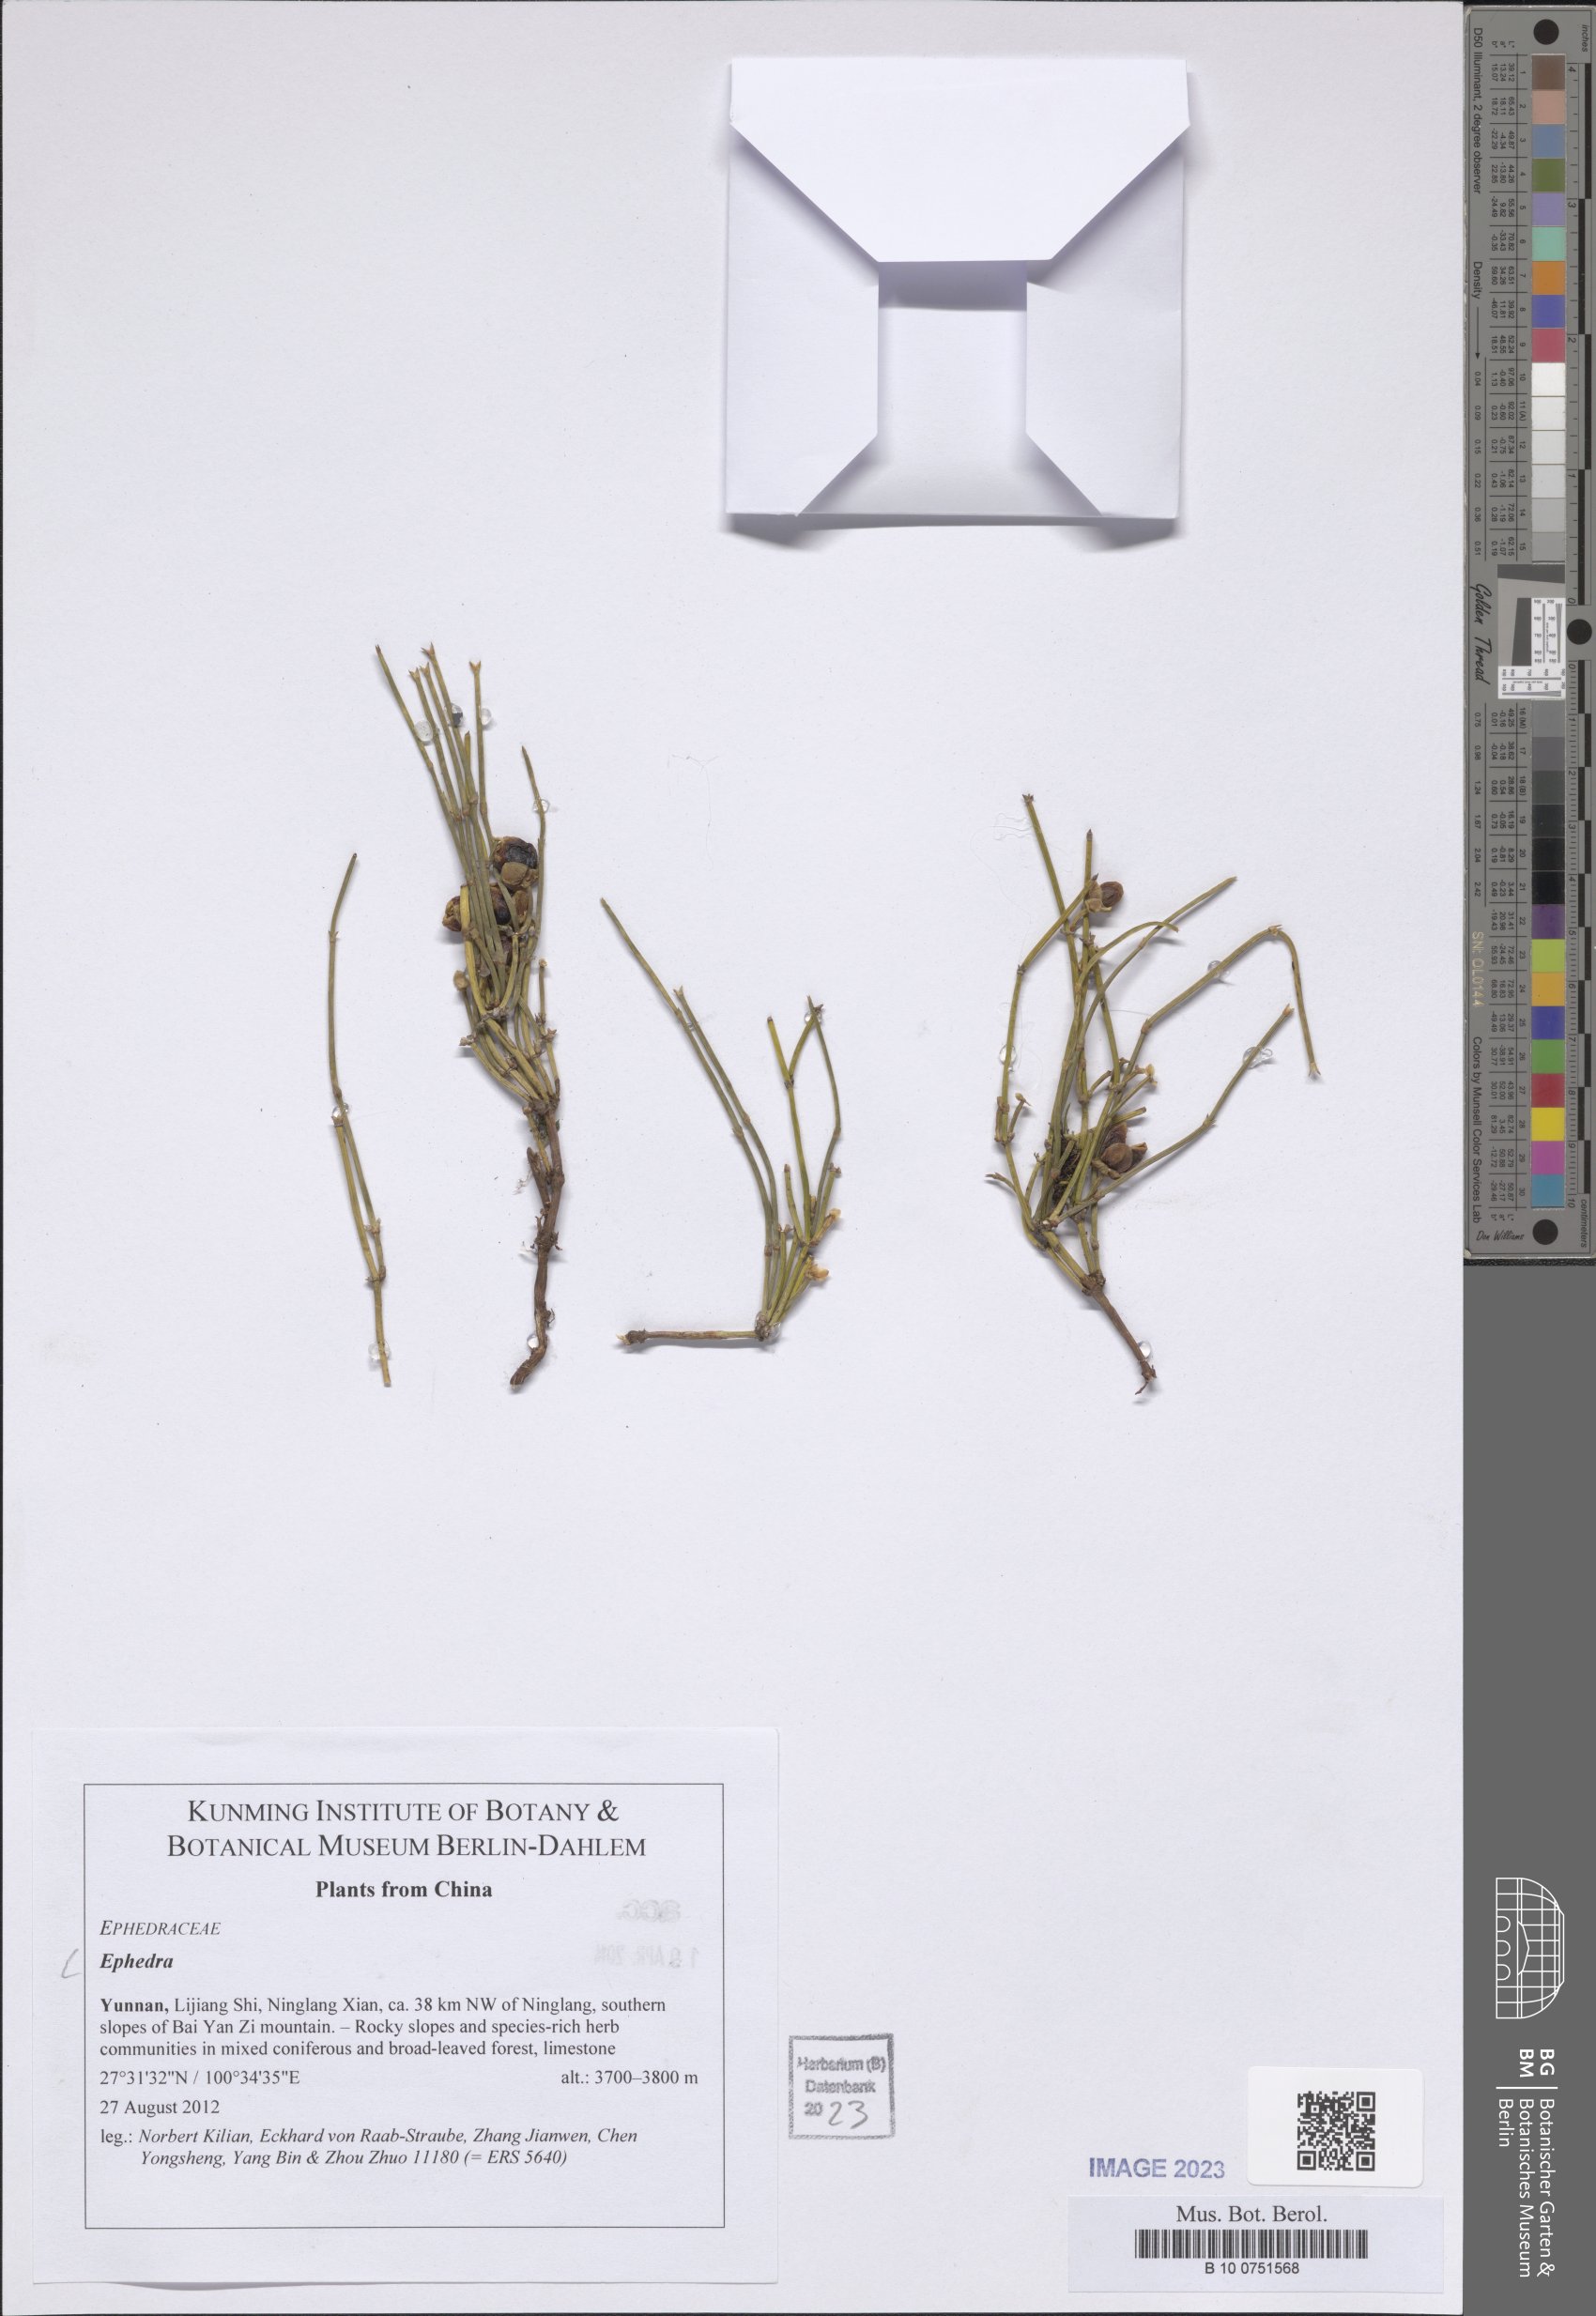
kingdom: Plantae
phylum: Tracheophyta
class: Gnetopsida
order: Ephedrales
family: Ephedraceae
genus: Ephedra
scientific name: Ephedra
